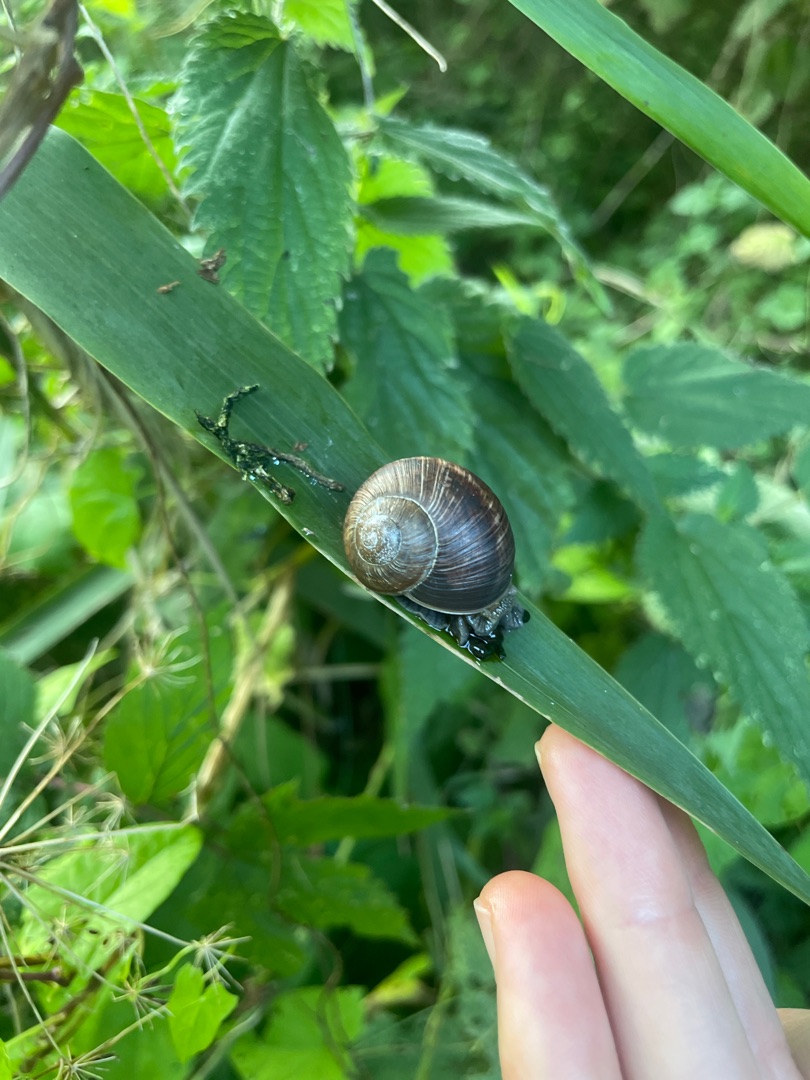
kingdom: Animalia
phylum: Mollusca
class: Gastropoda
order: Stylommatophora
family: Helicidae
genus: Helix
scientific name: Helix pomatia
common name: Vinbjergsnegl
